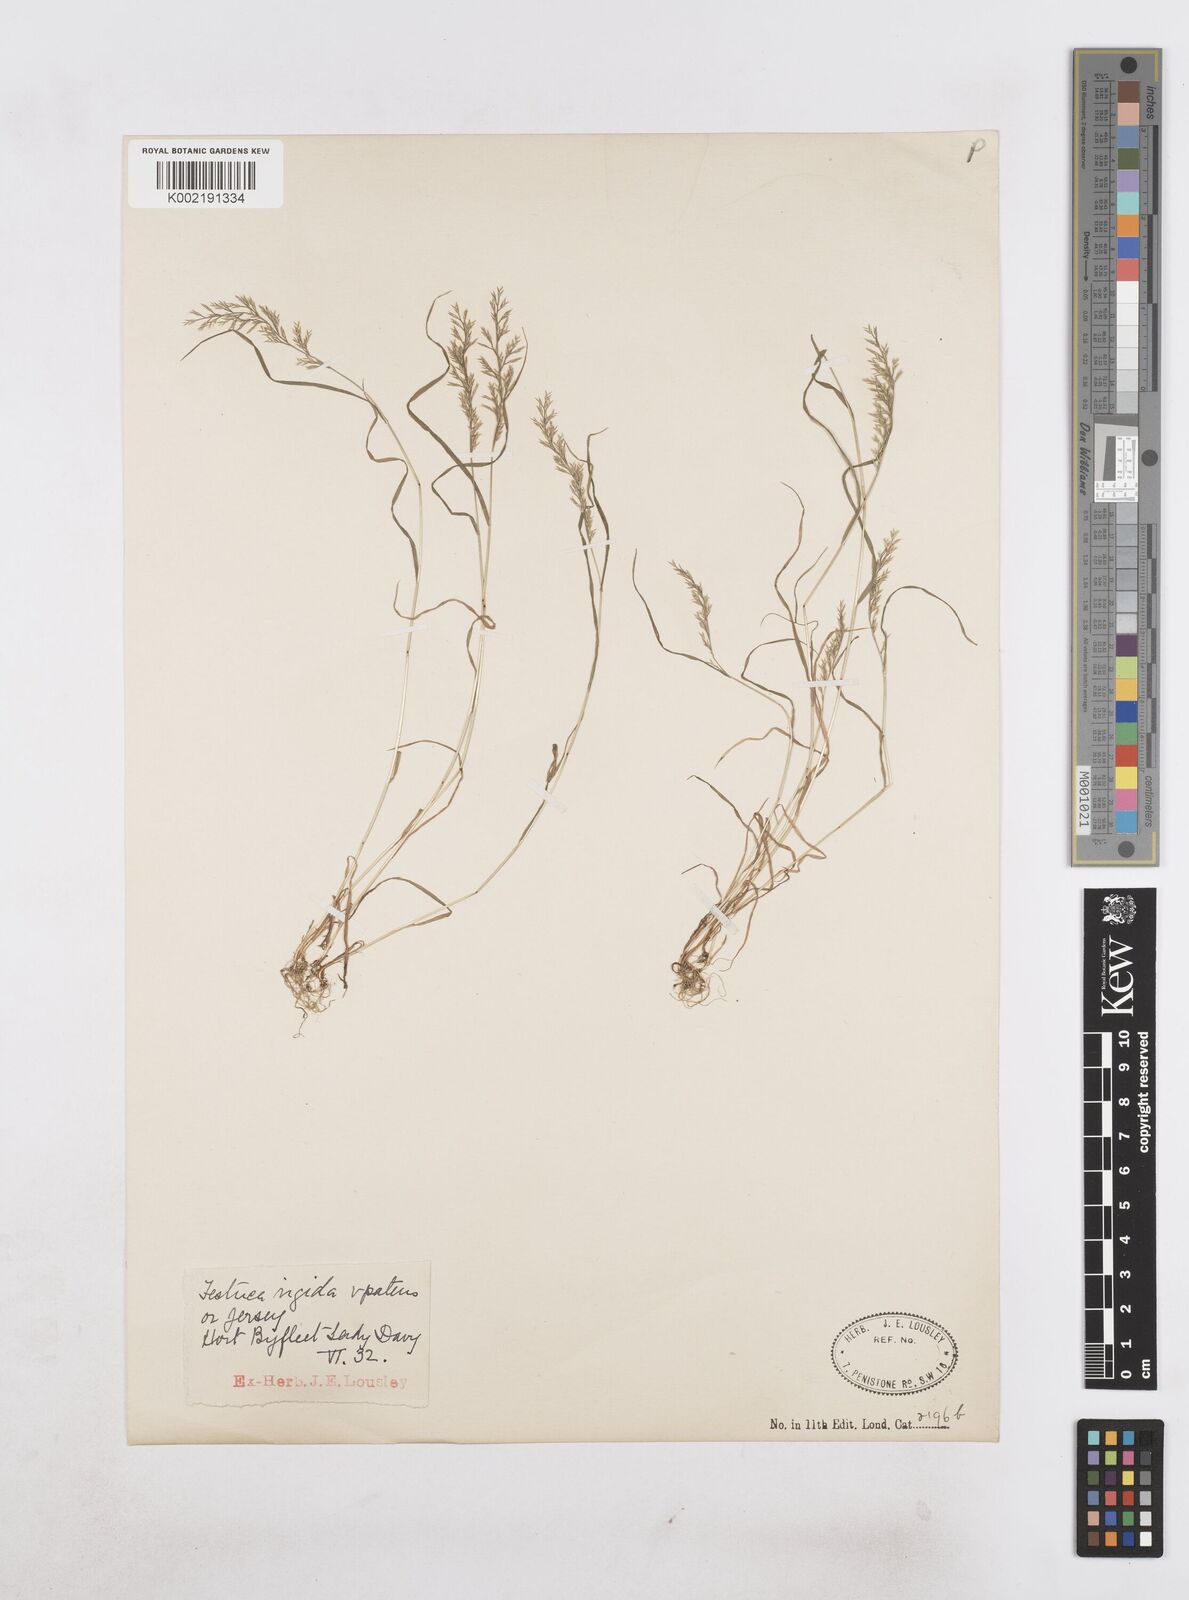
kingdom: Plantae
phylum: Tracheophyta
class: Liliopsida
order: Poales
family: Poaceae
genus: Catapodium
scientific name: Catapodium rigidum
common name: Fern-grass
